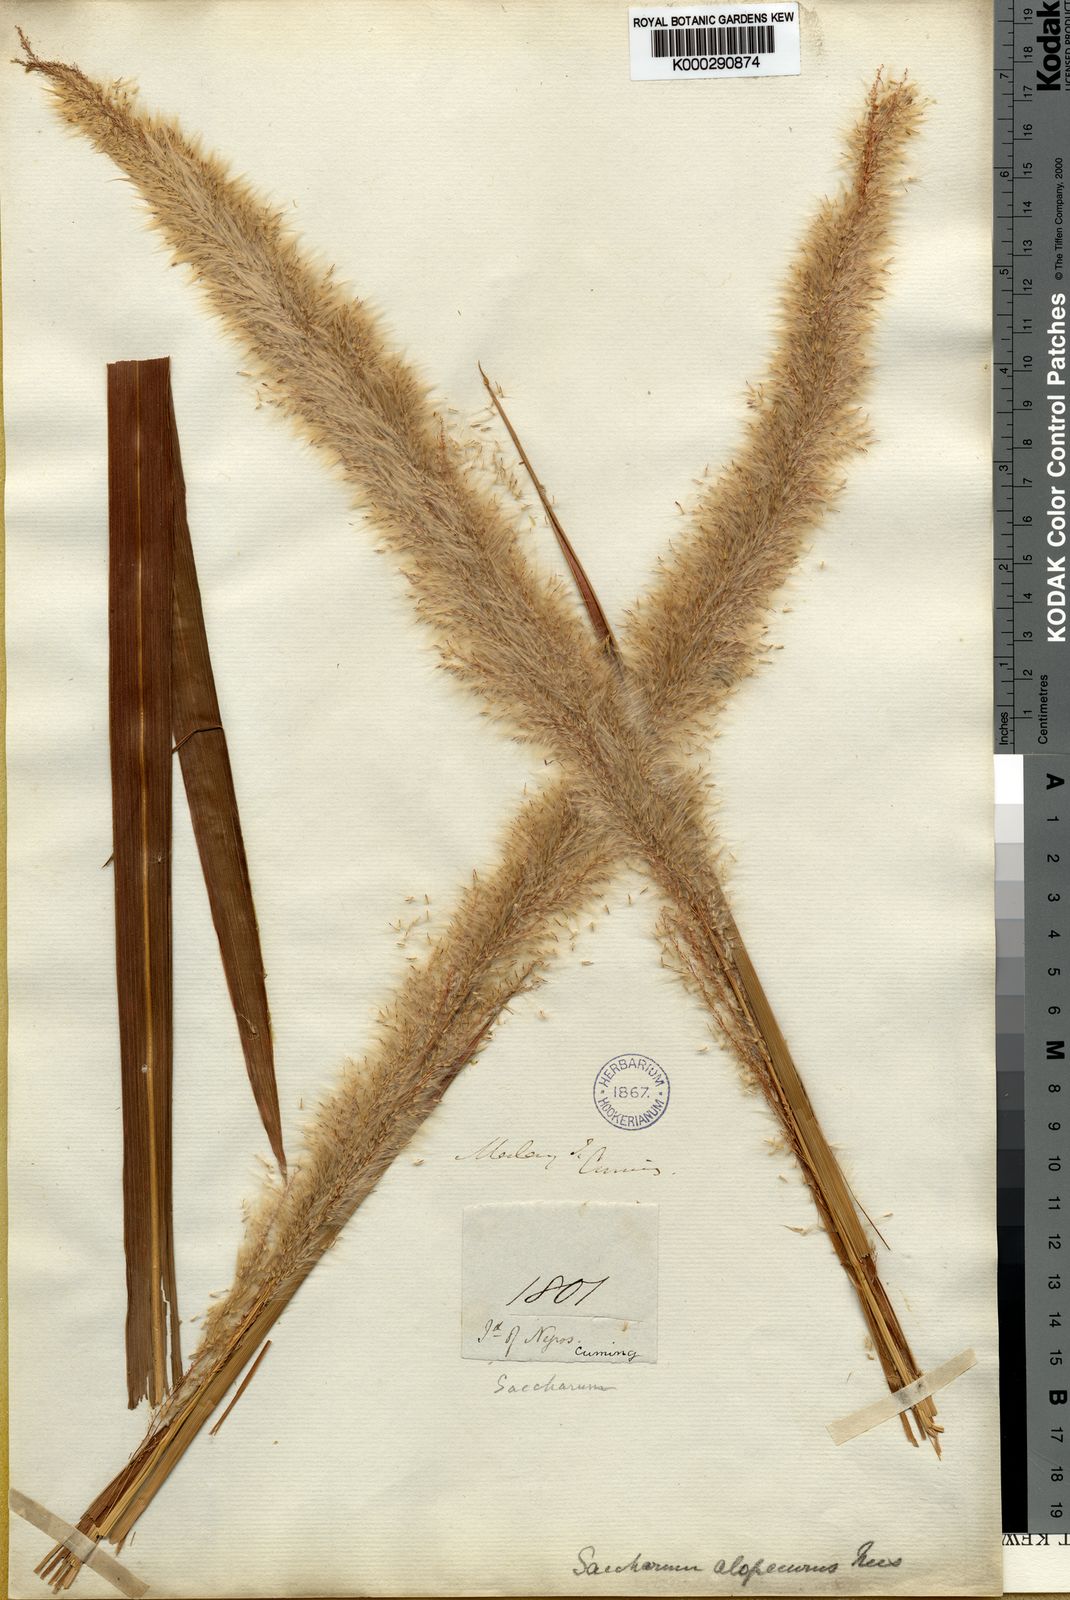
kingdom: Plantae
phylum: Tracheophyta
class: Liliopsida
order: Poales
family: Poaceae
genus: Imperata
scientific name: Imperata conferta
